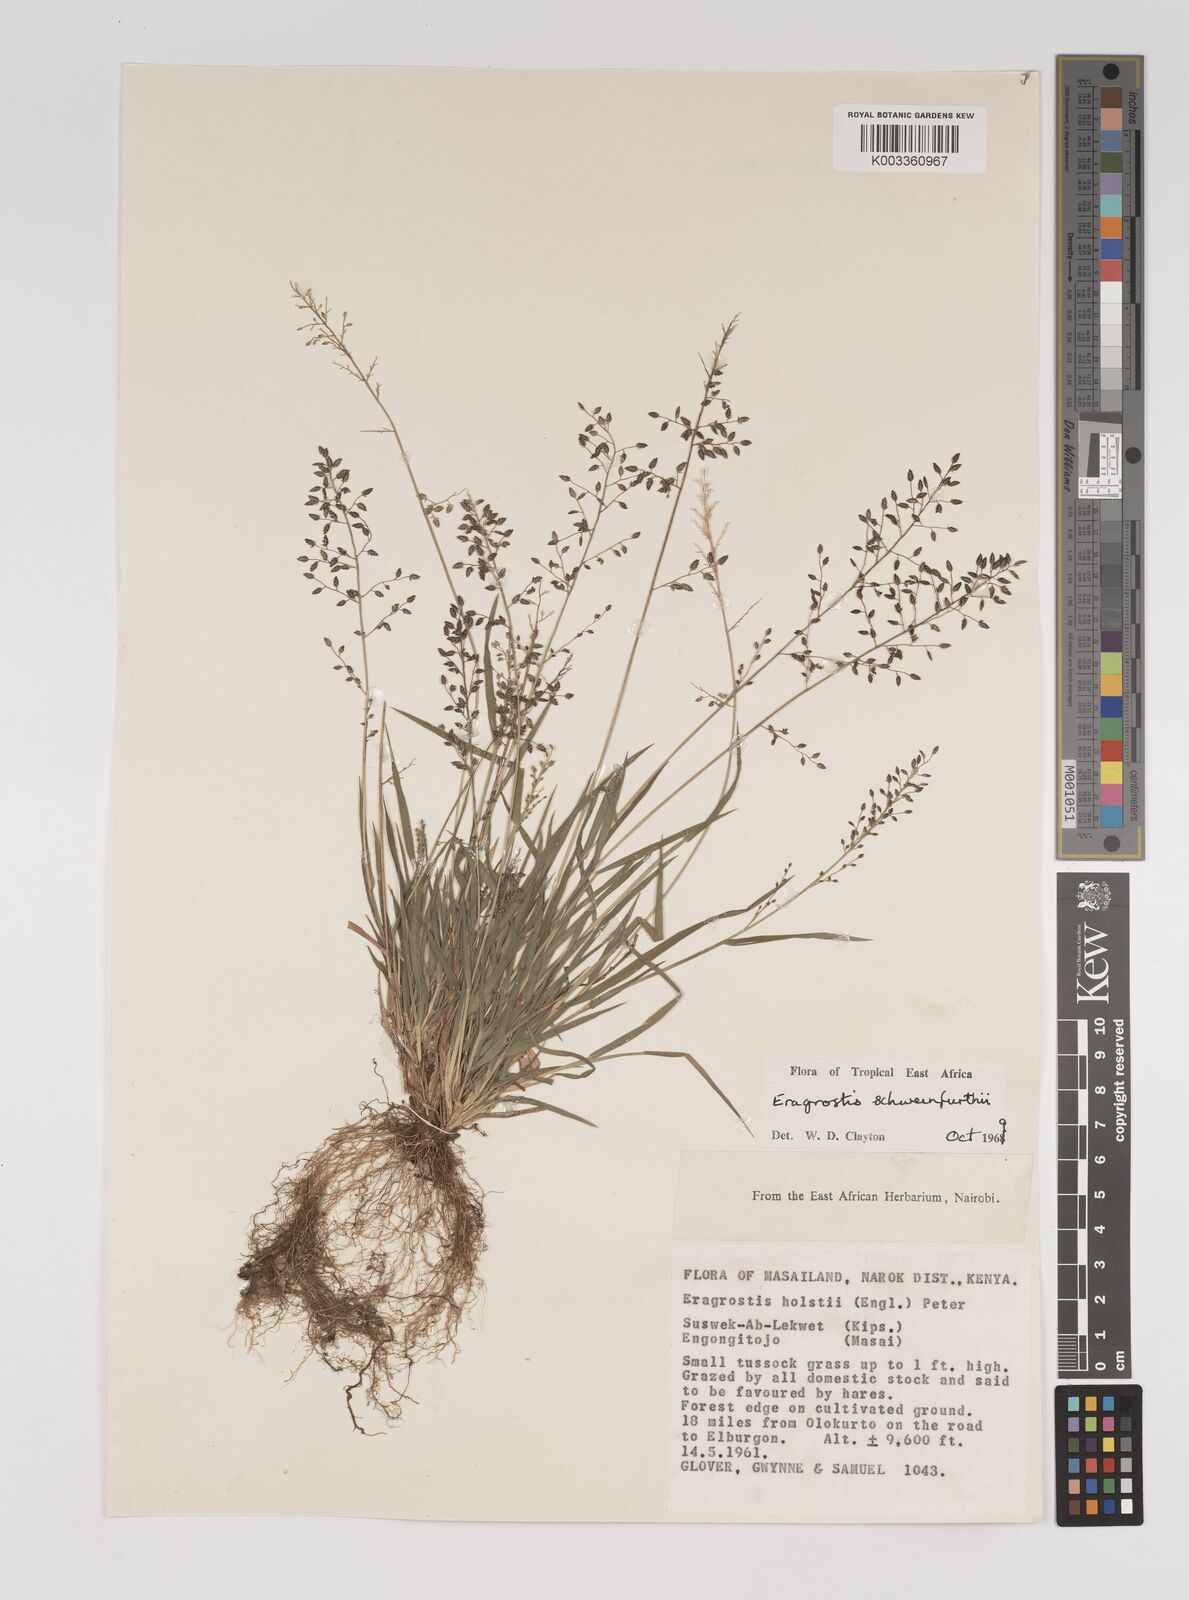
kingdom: Plantae
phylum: Tracheophyta
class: Liliopsida
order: Poales
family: Poaceae
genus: Eragrostis
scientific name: Eragrostis schweinfurthii
